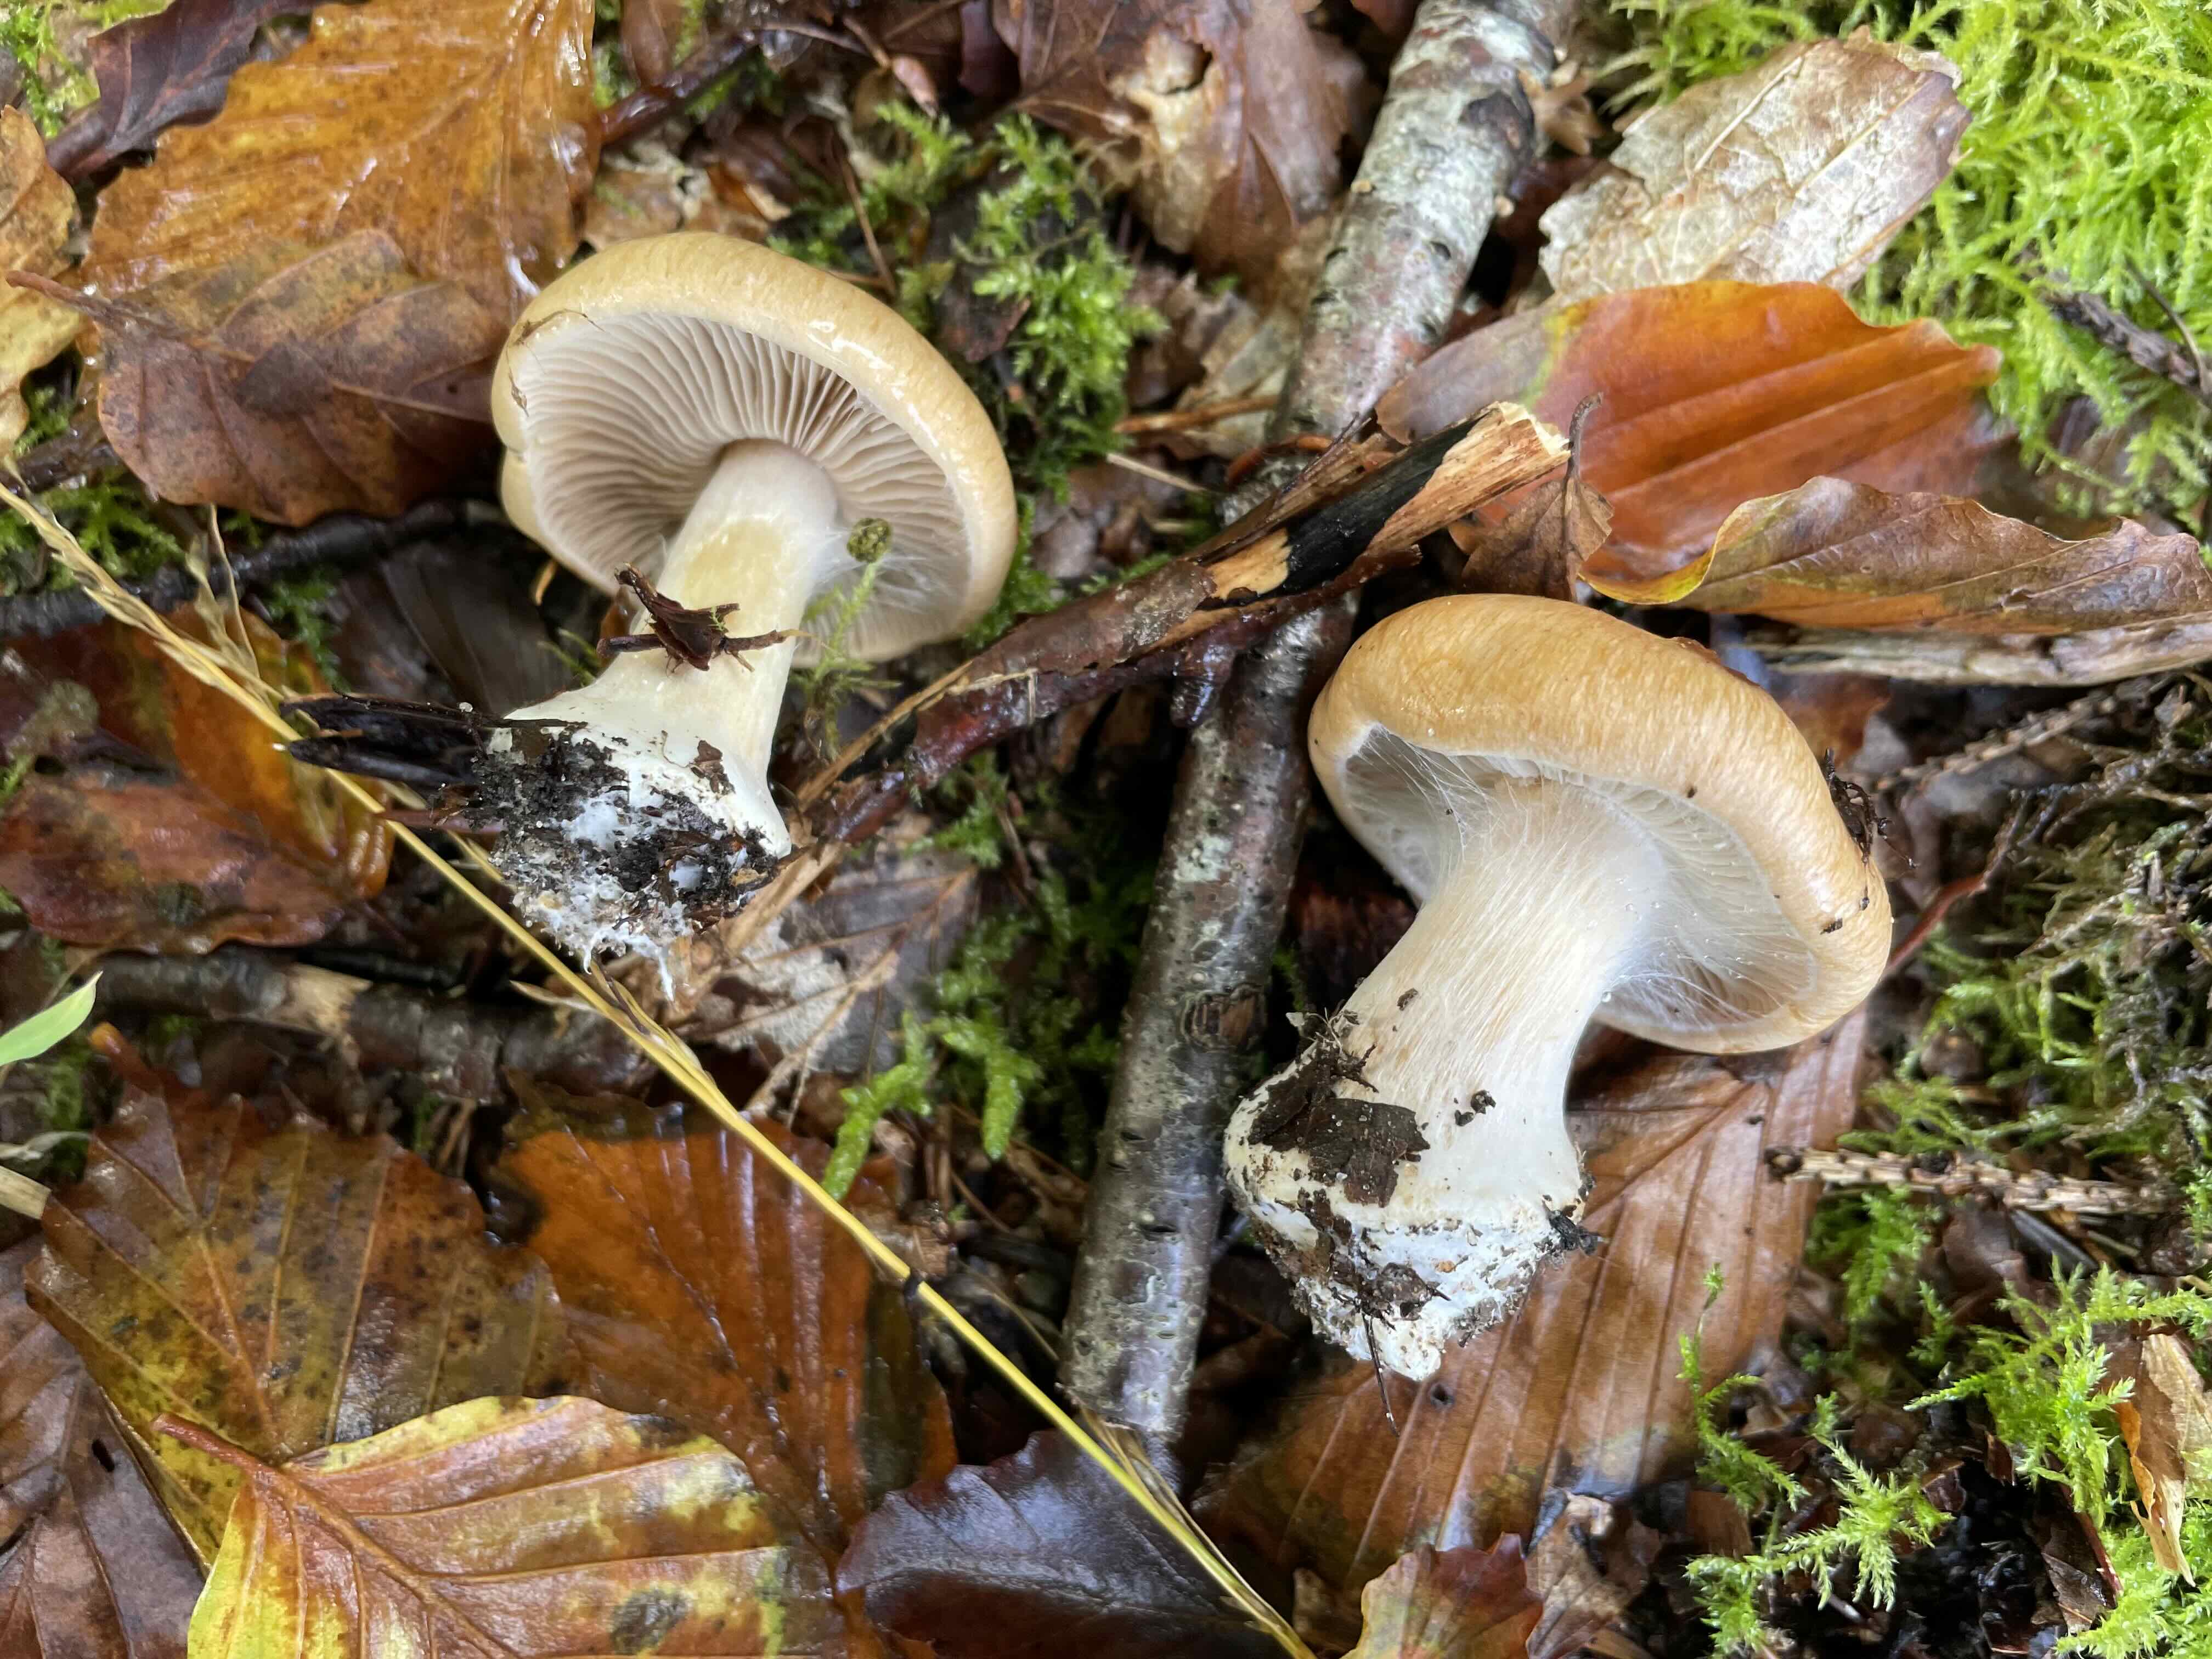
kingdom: Fungi
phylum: Basidiomycota
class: Agaricomycetes
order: Agaricales
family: Cortinariaceae
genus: Thaxterogaster
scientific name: Thaxterogaster talus
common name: knogle-slørhat
